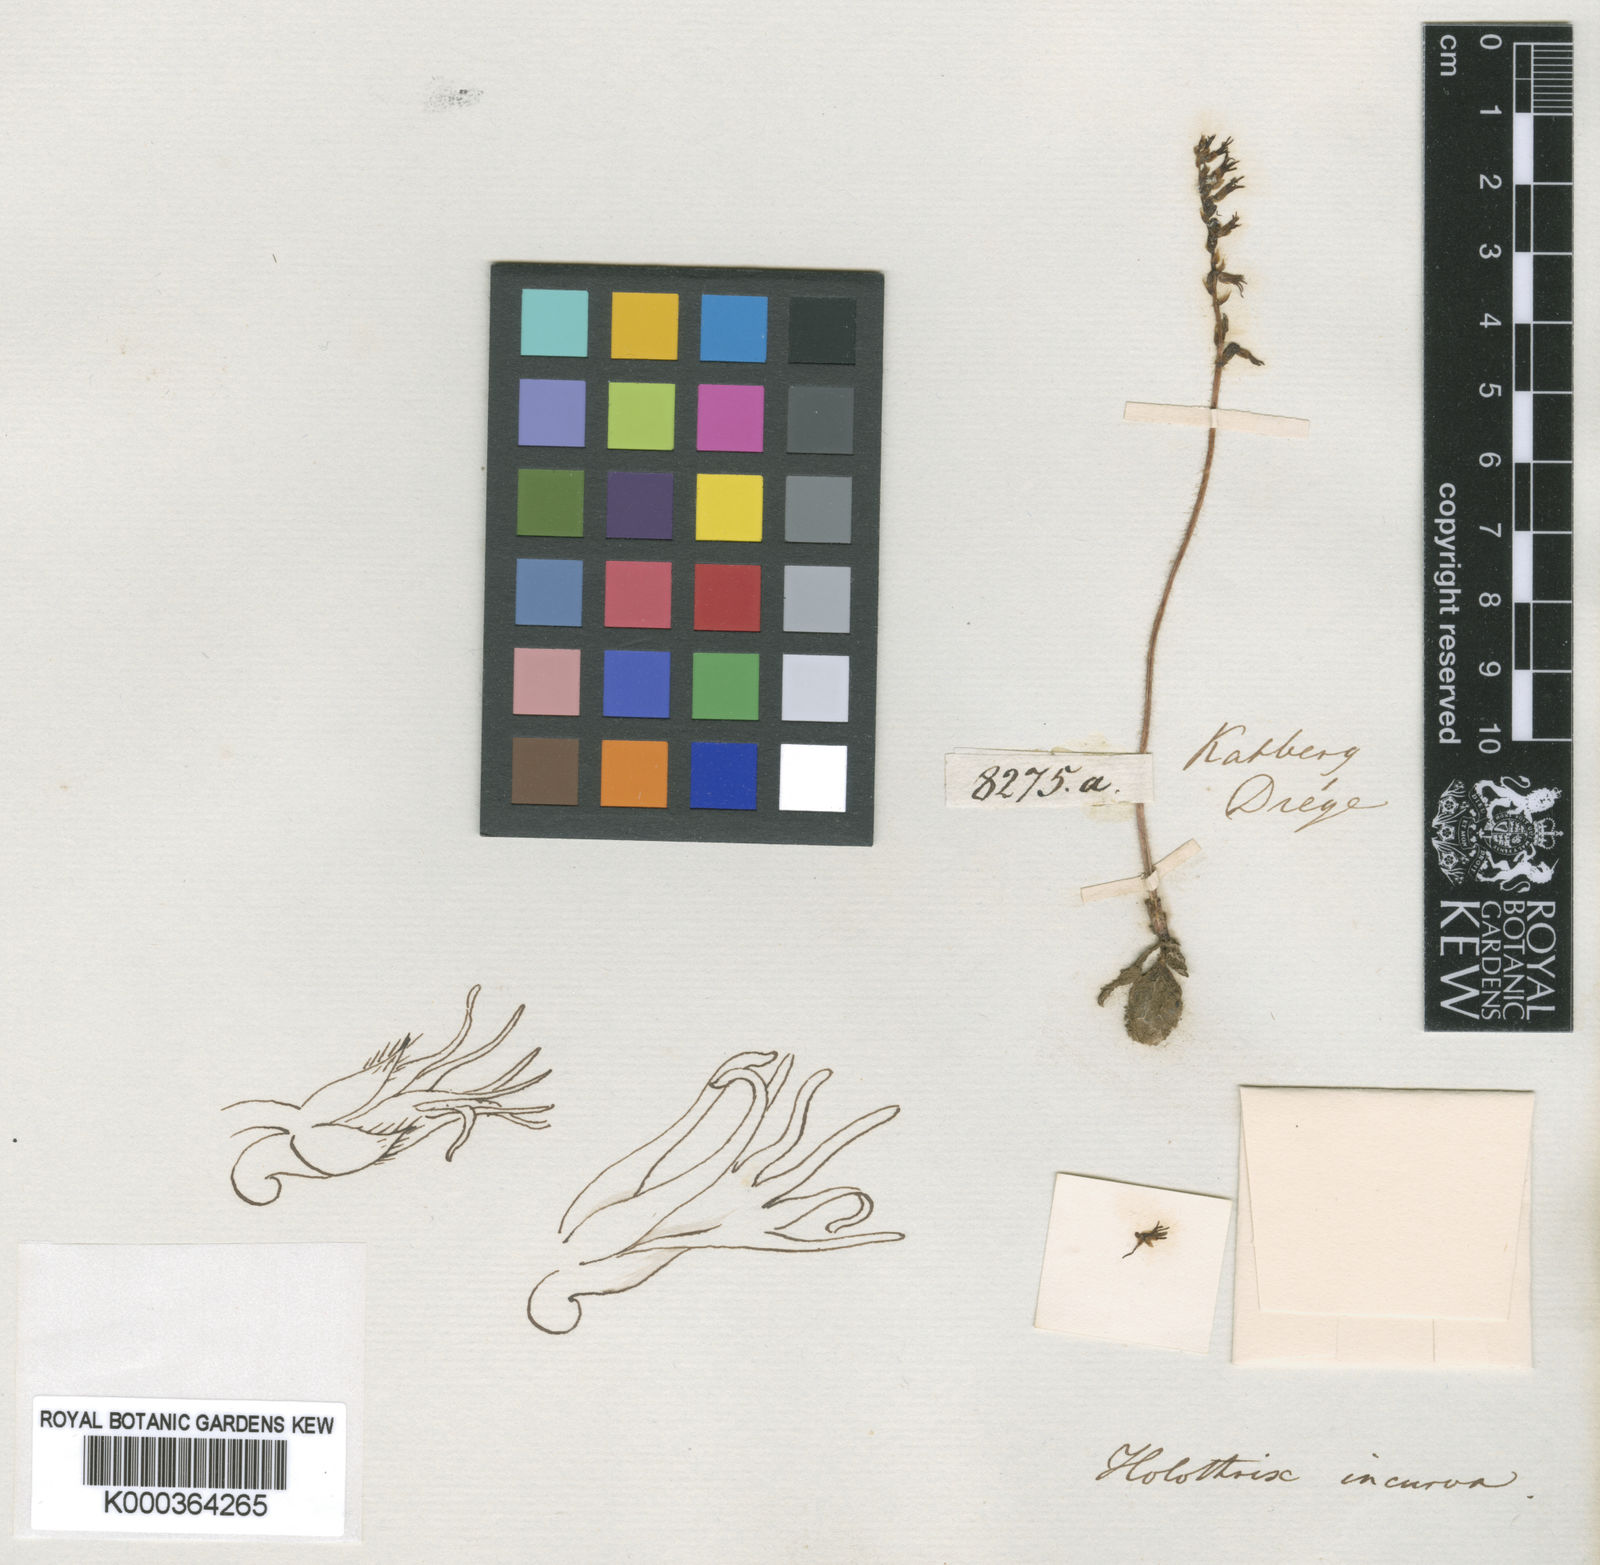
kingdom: Plantae
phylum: Tracheophyta
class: Liliopsida
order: Asparagales
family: Orchidaceae
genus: Holothrix
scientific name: Holothrix incurva
